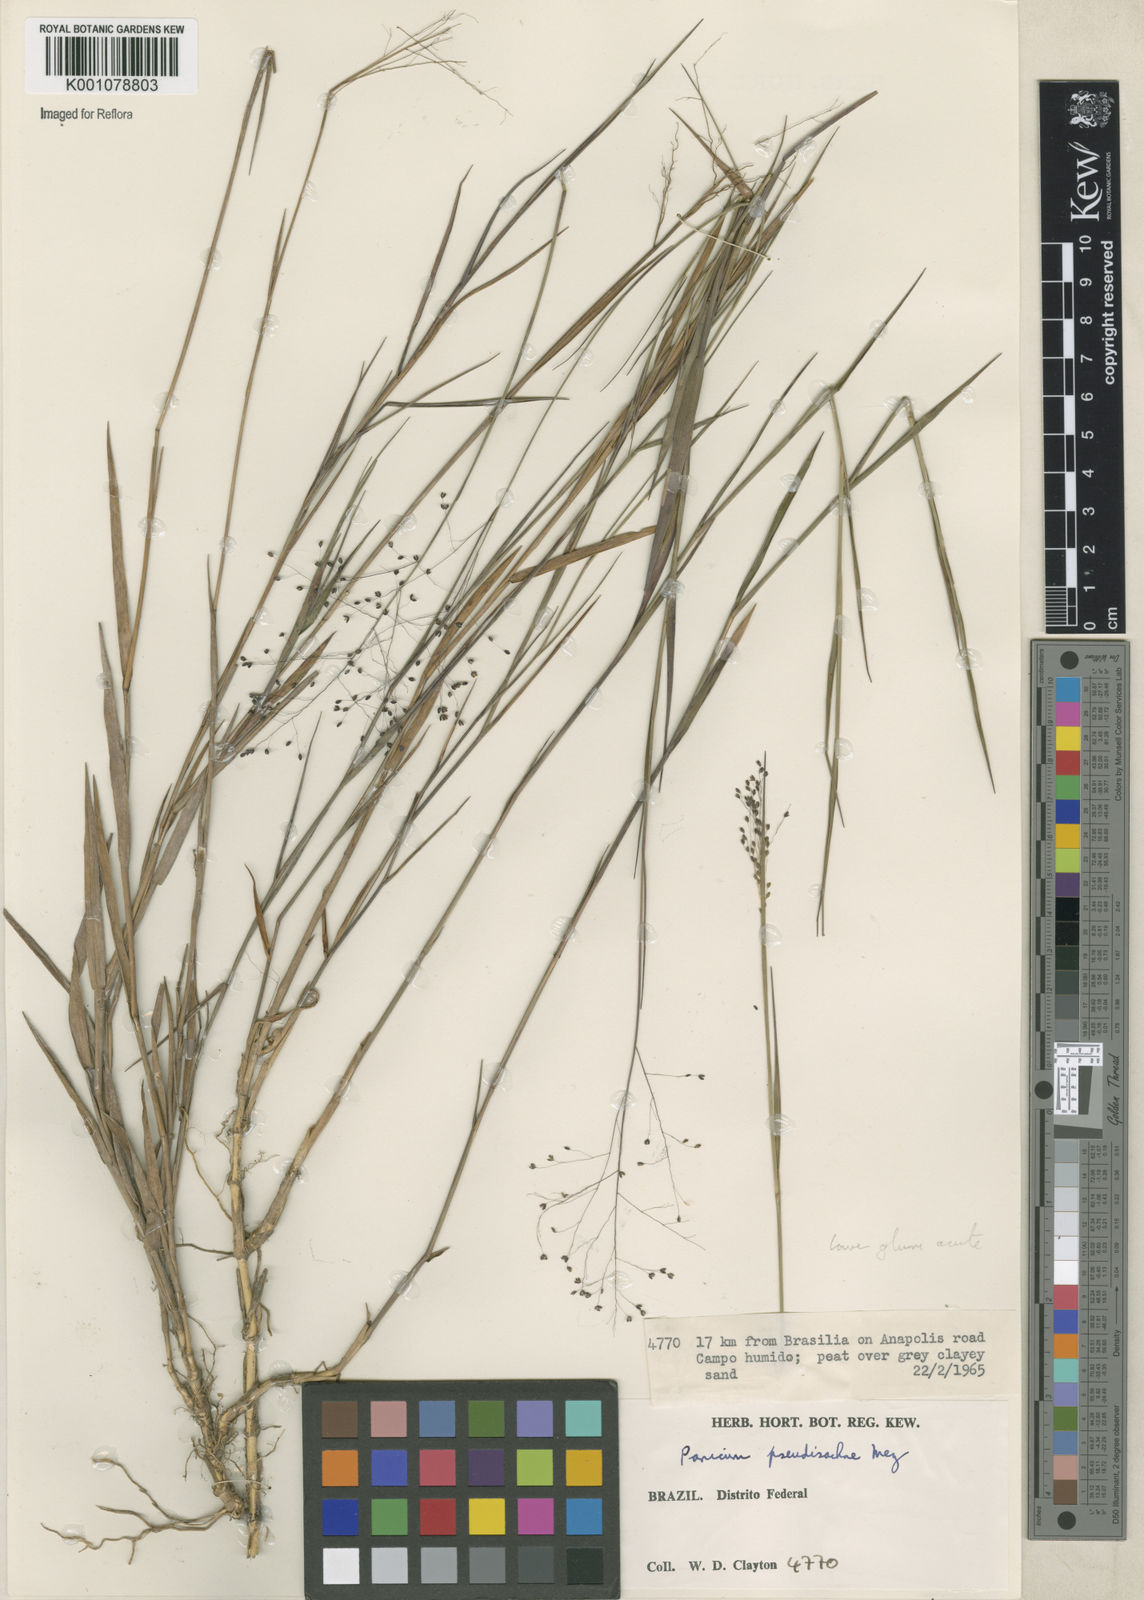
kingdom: Plantae
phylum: Tracheophyta
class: Liliopsida
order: Poales
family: Poaceae
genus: Trichanthecium
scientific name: Trichanthecium pseudisachne
